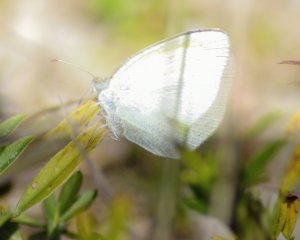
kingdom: Animalia
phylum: Arthropoda
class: Insecta
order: Lepidoptera
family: Pieridae
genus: Glutophrissa
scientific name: Glutophrissa drusilla
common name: Florida White
